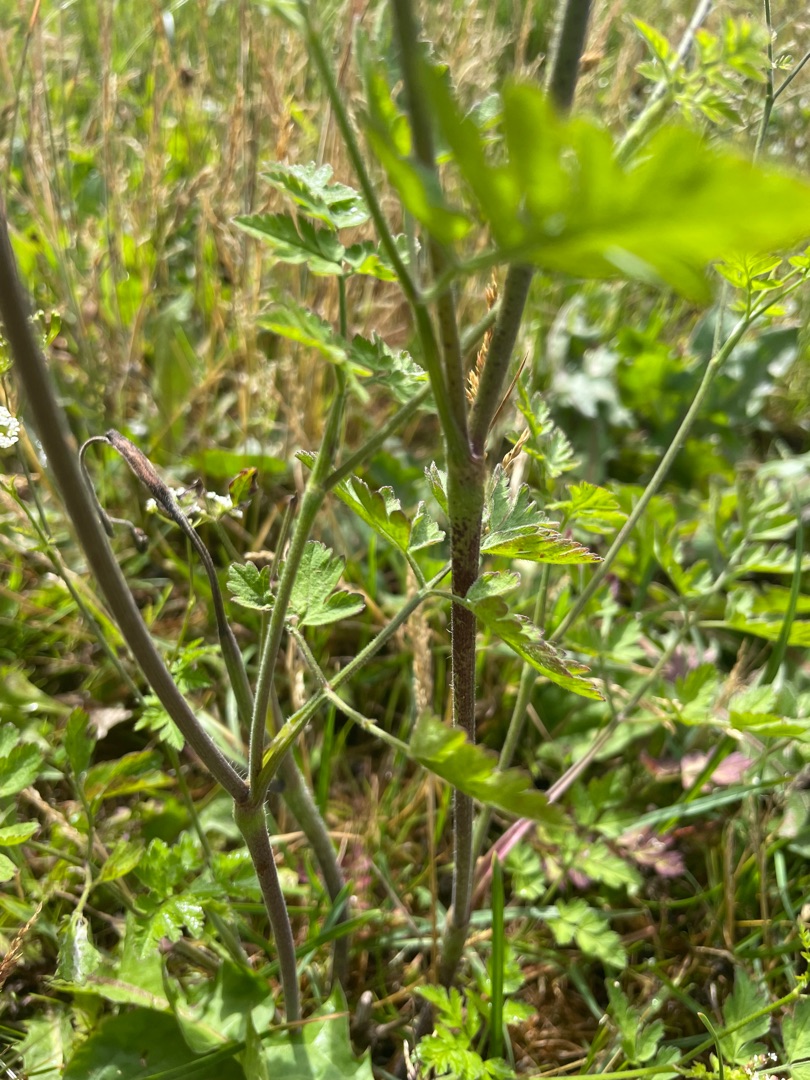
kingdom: Plantae
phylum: Tracheophyta
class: Magnoliopsida
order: Apiales
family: Apiaceae
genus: Chaerophyllum
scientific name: Chaerophyllum temulum
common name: Almindelig hulsvøb
